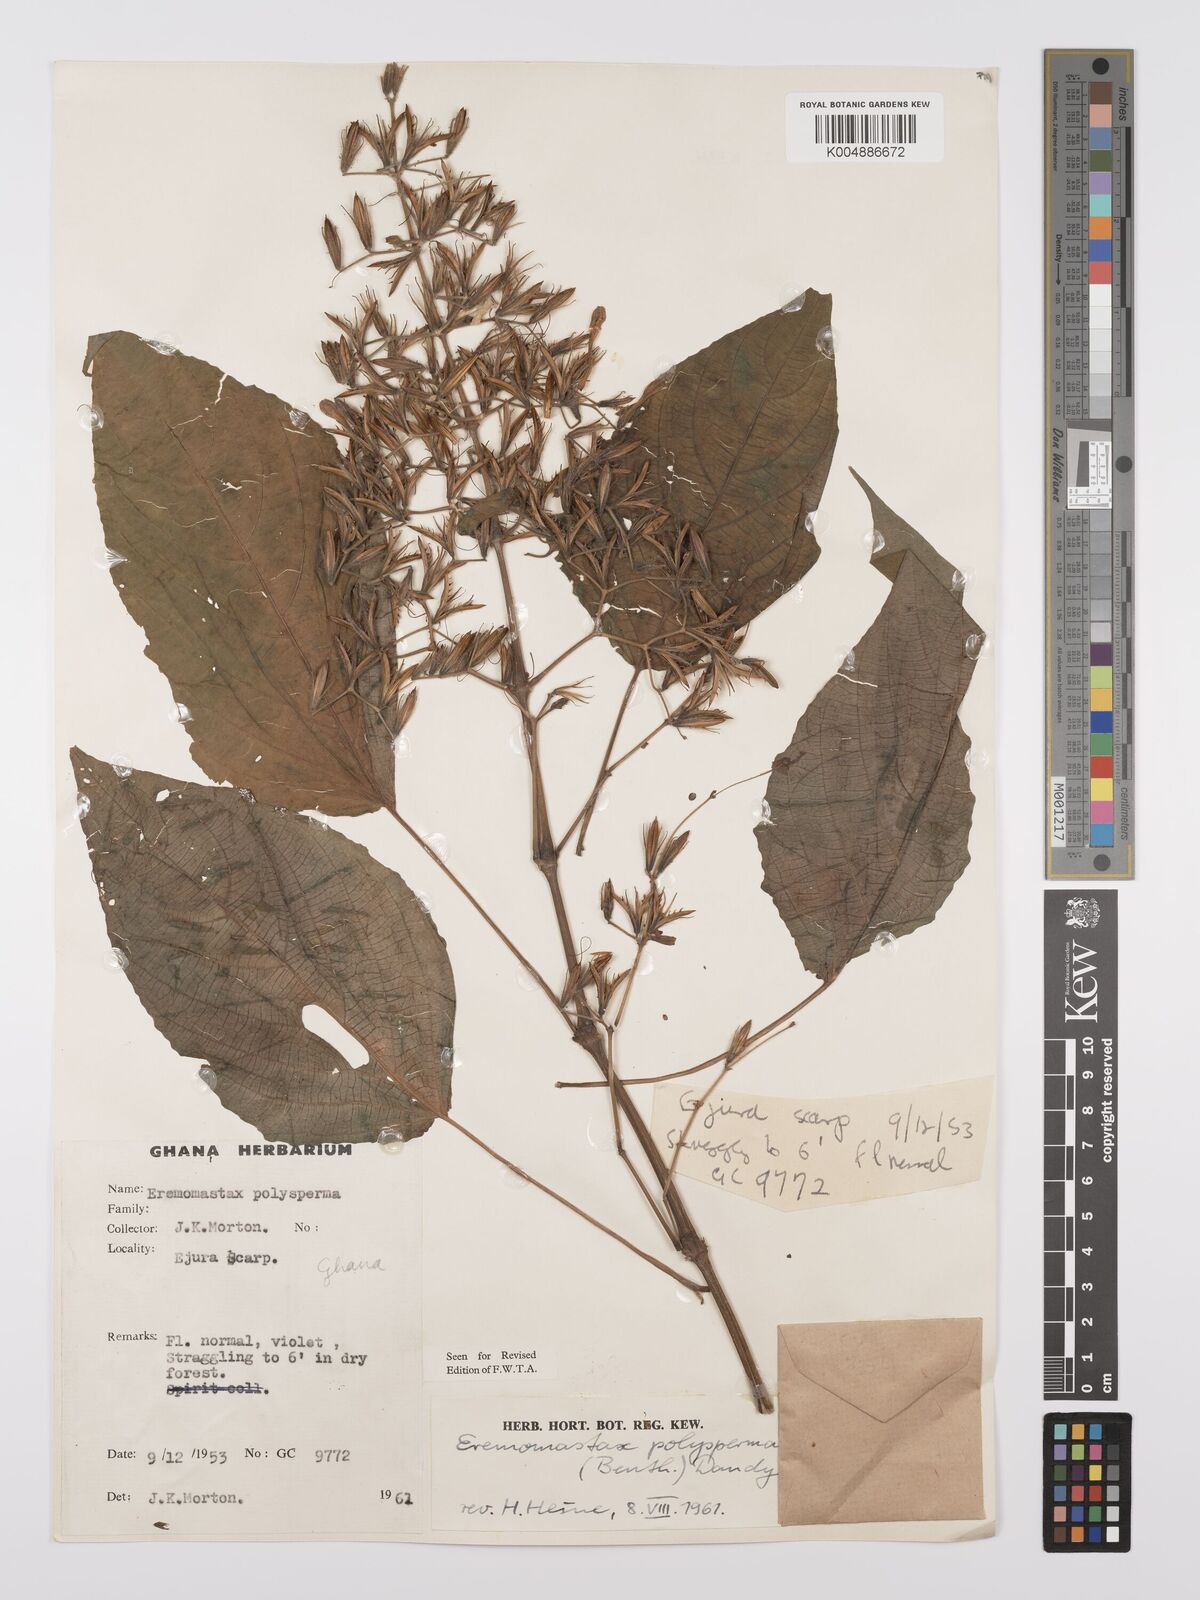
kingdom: Plantae
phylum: Tracheophyta
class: Magnoliopsida
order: Lamiales
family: Acanthaceae
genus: Eremomastax
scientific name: Eremomastax speciosa
